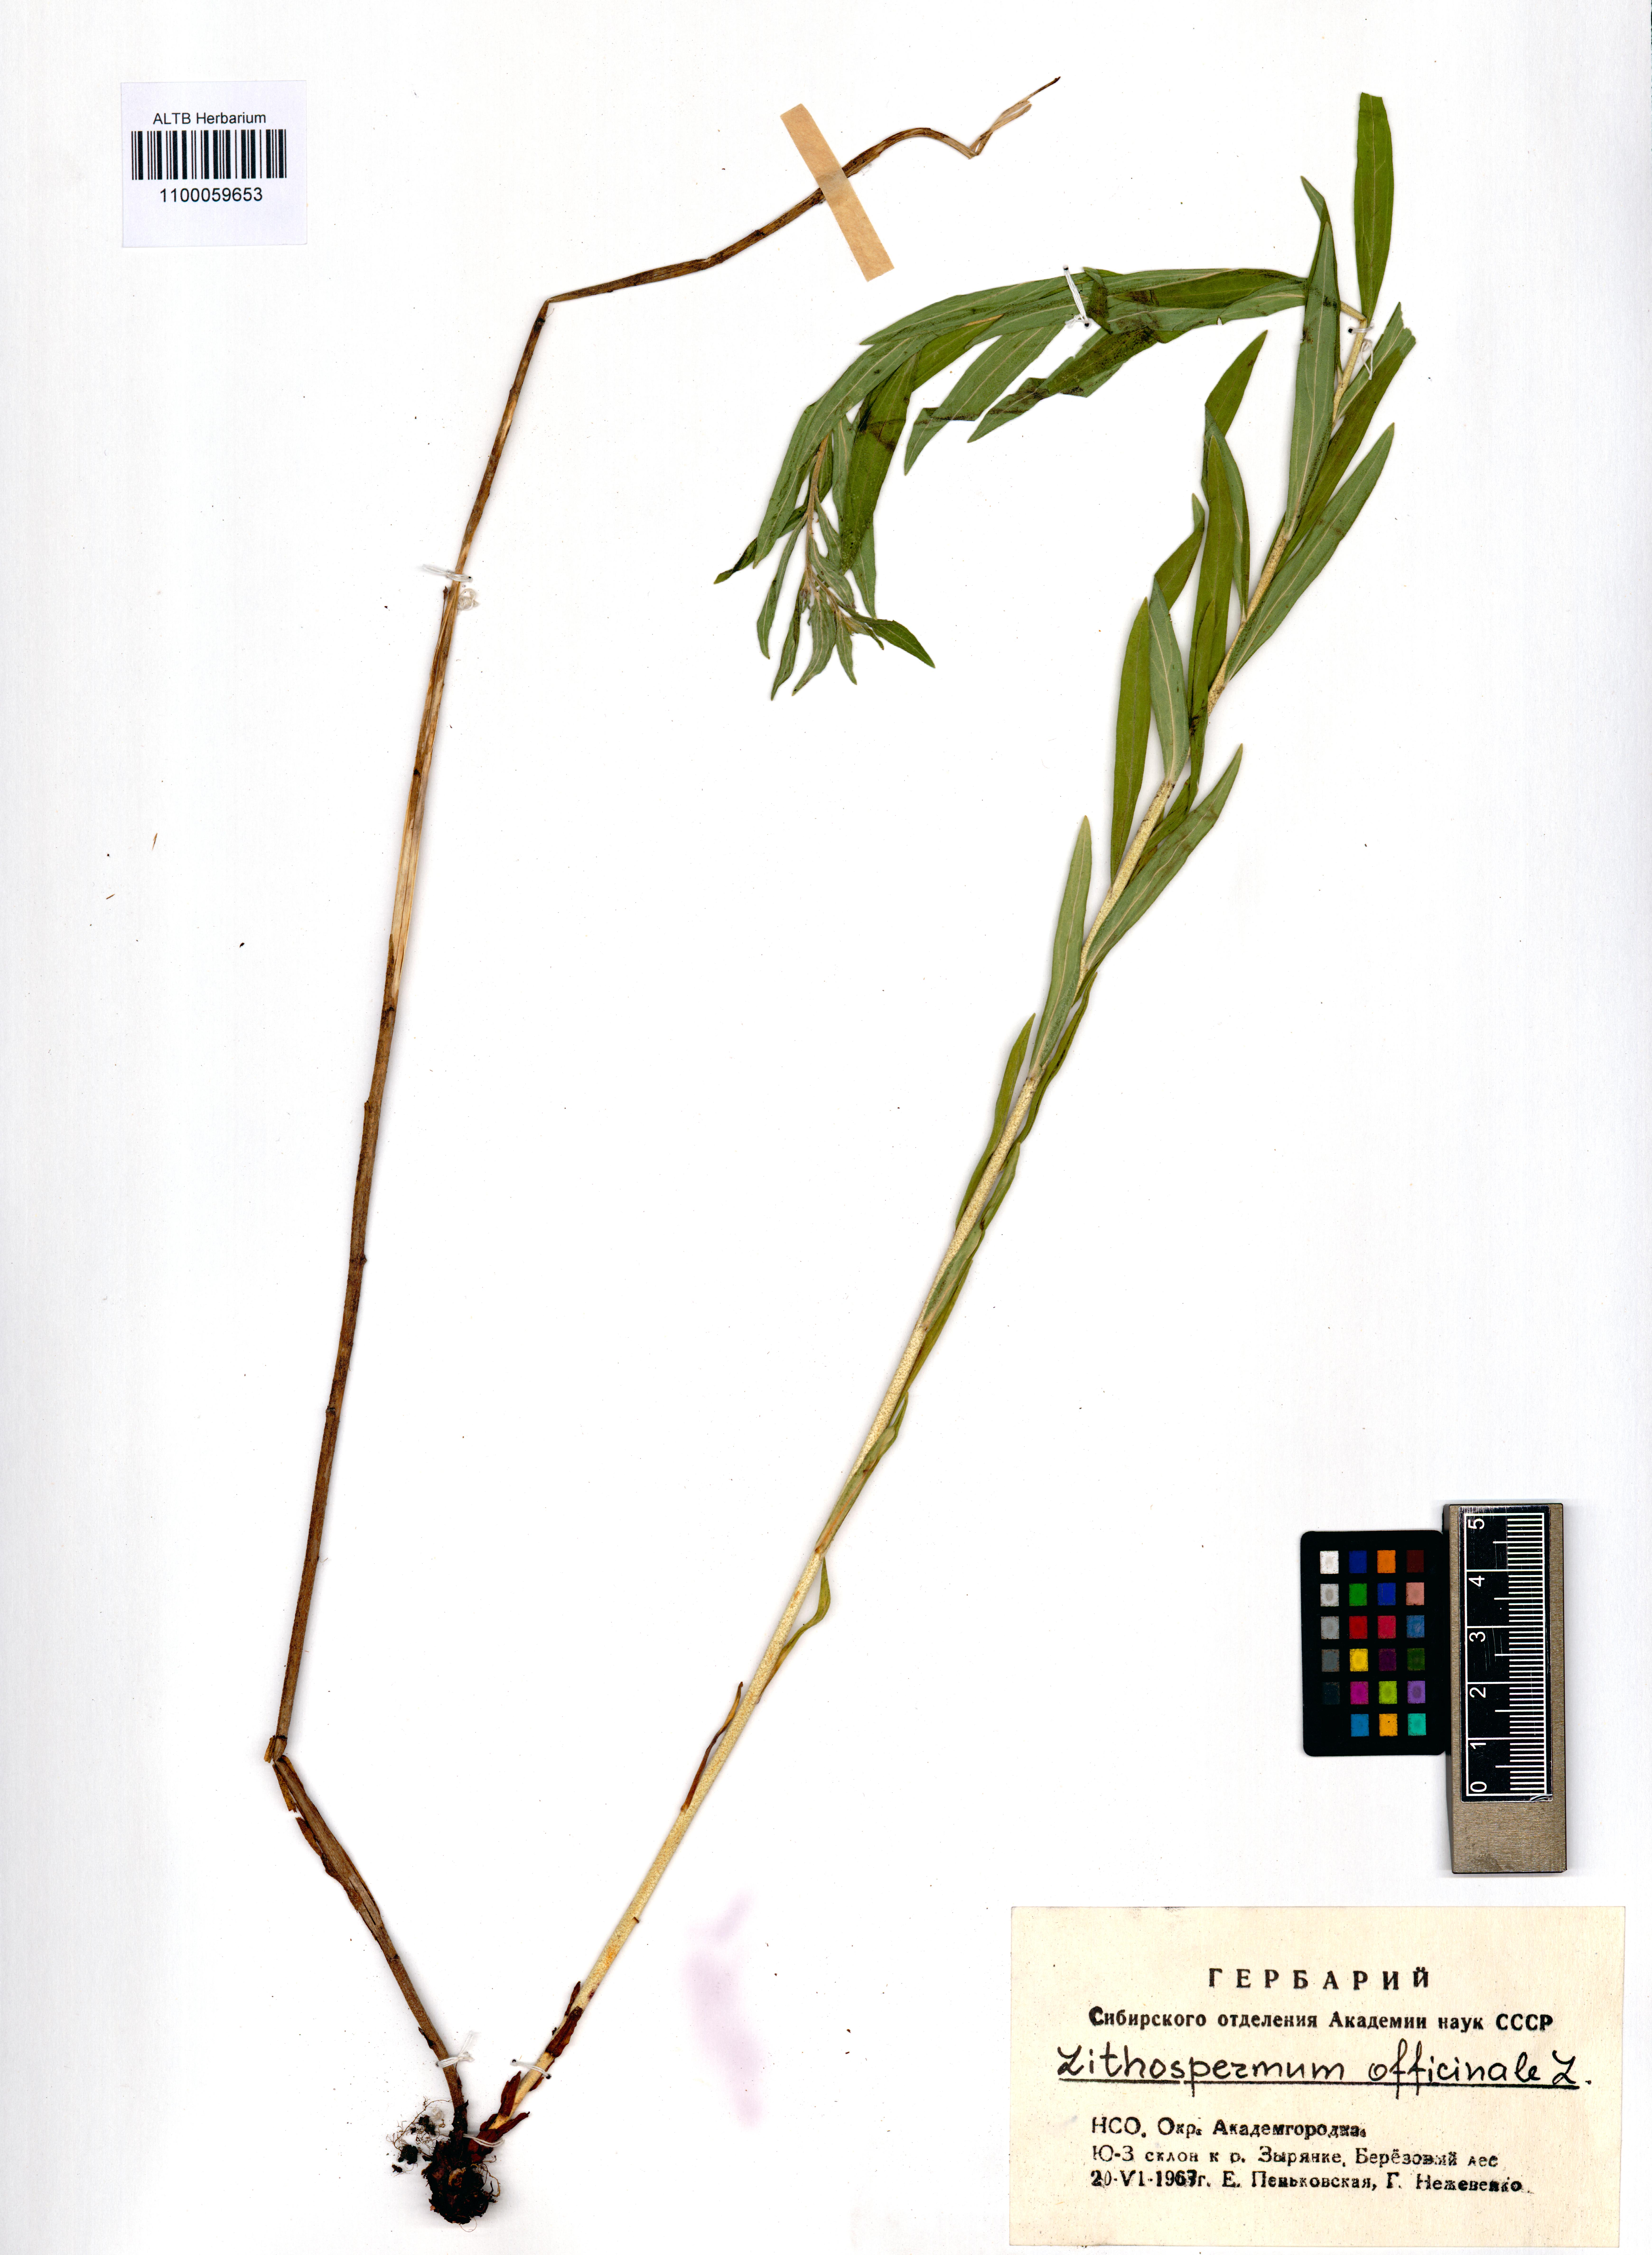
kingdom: Plantae
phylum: Tracheophyta
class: Magnoliopsida
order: Boraginales
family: Boraginaceae
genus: Lithospermum
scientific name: Lithospermum officinale
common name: Common gromwell
